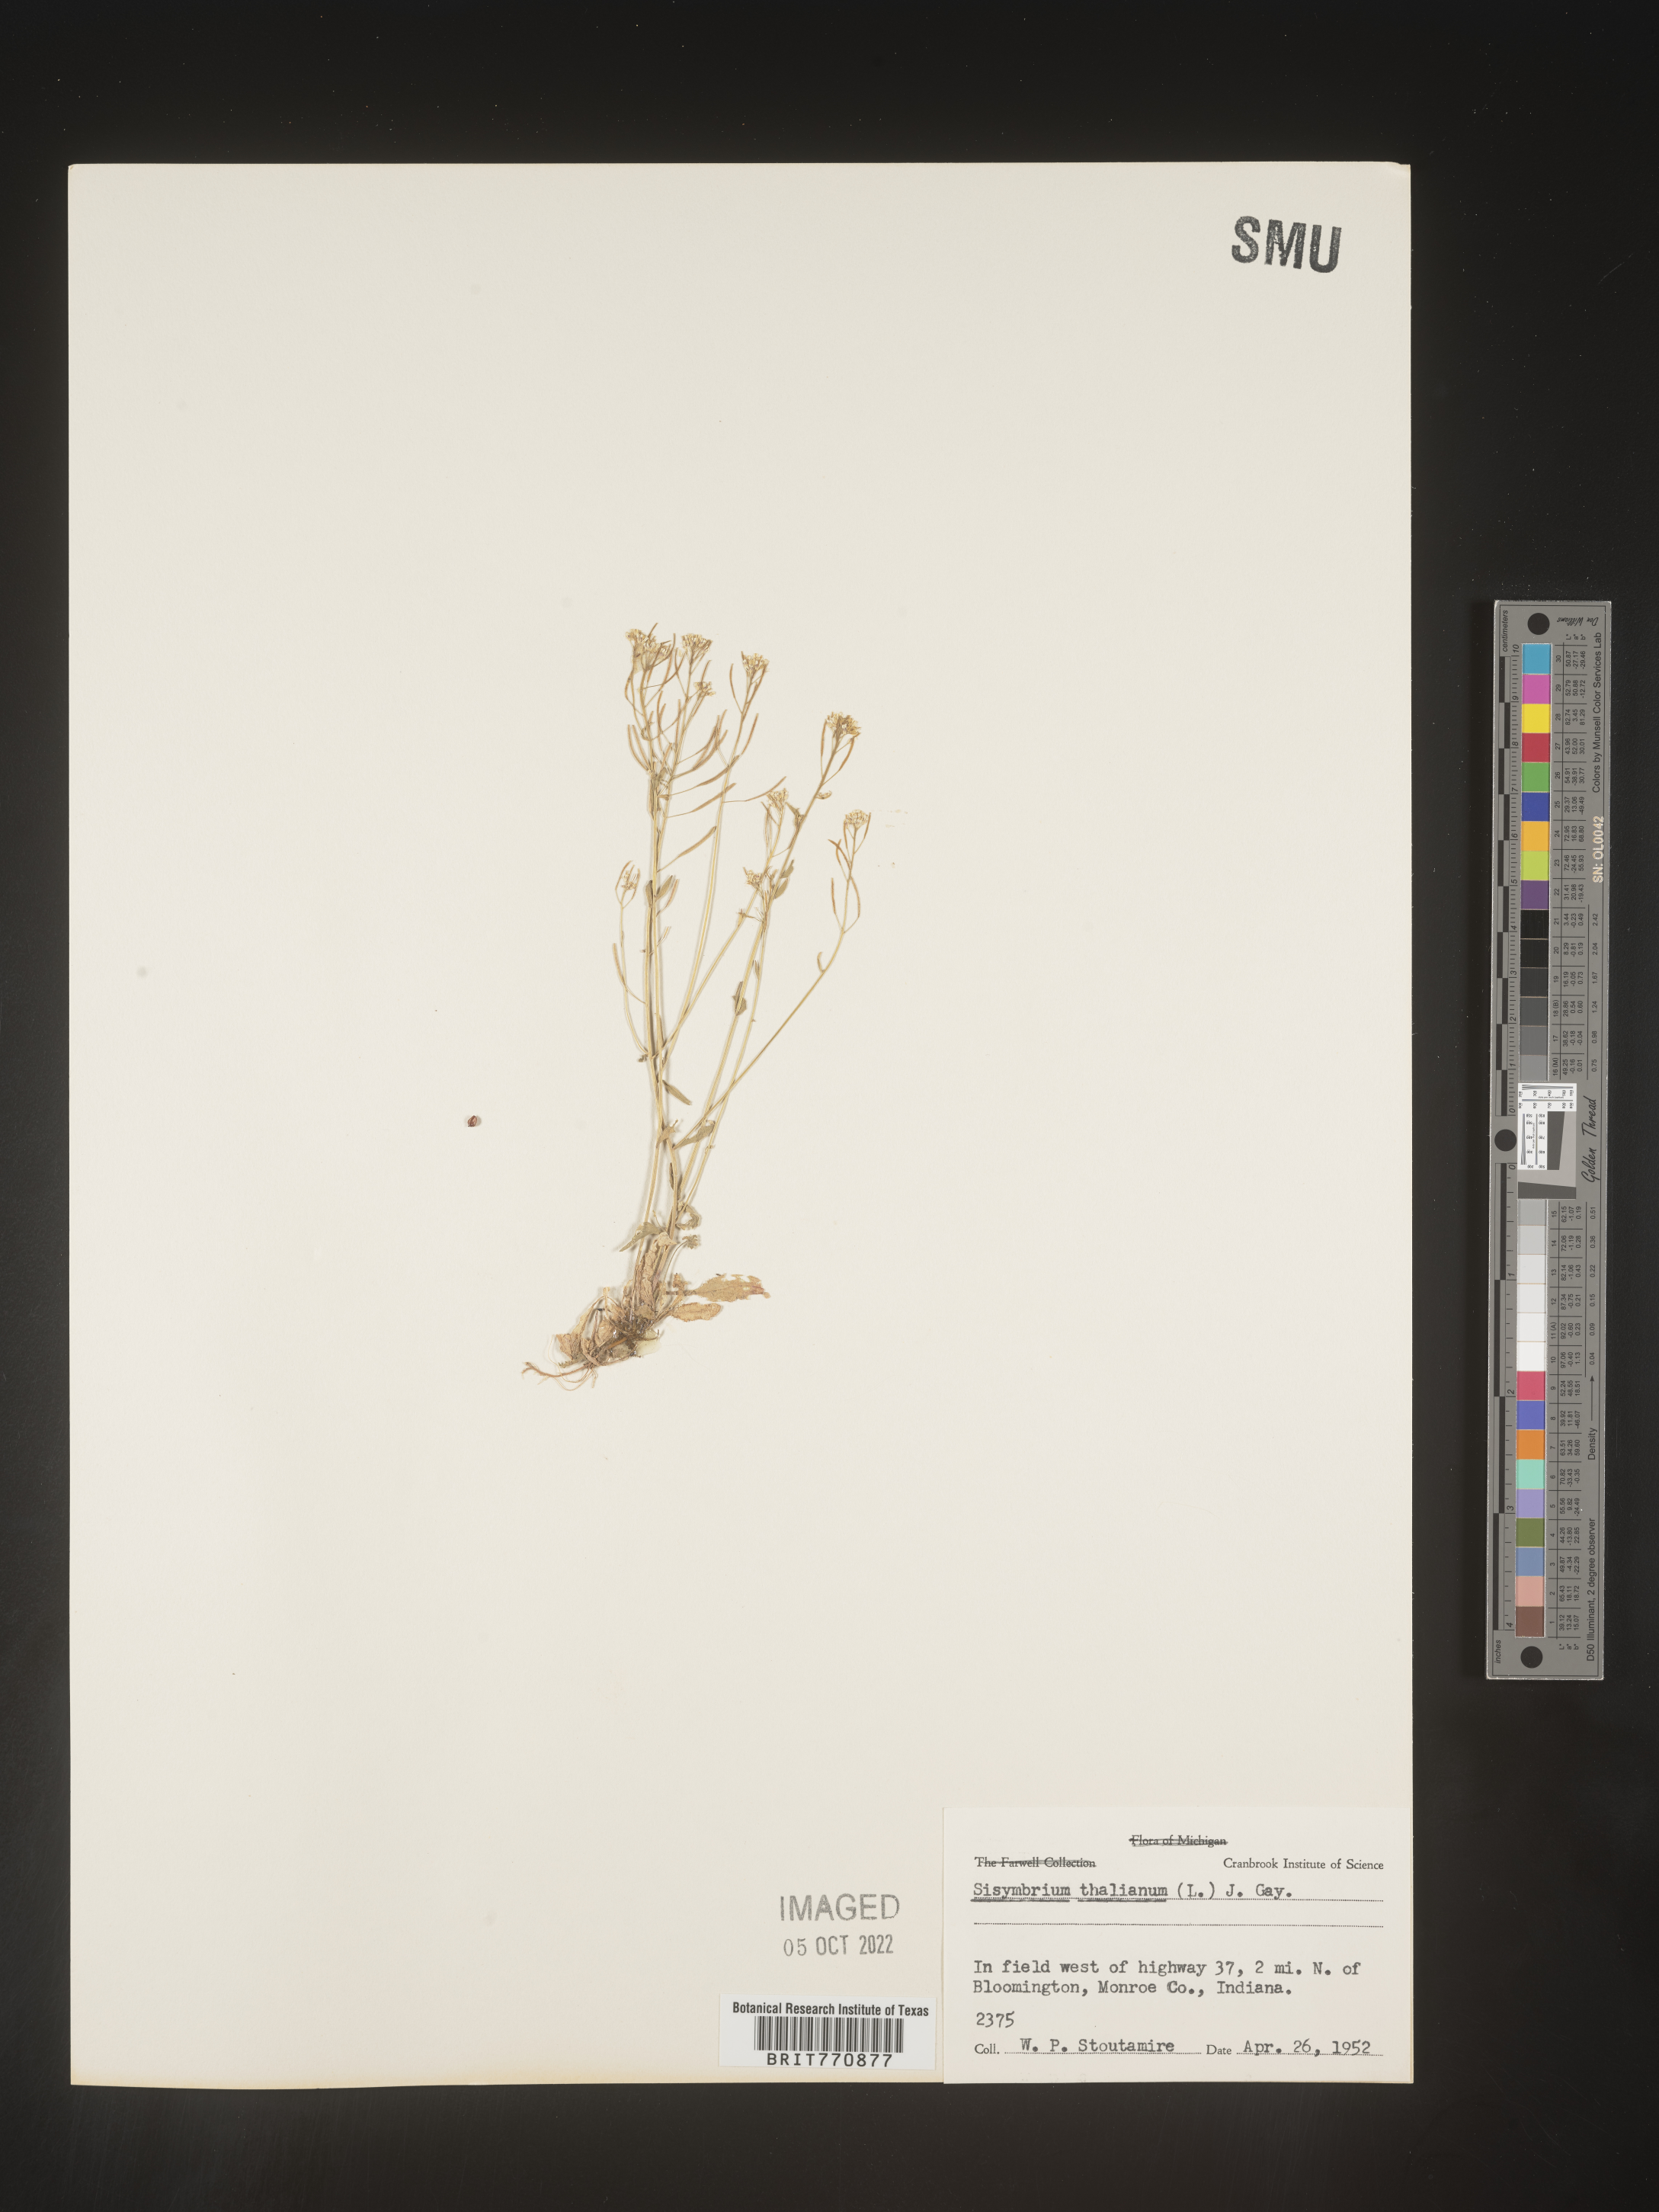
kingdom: Plantae
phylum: Tracheophyta
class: Magnoliopsida
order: Brassicales
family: Brassicaceae
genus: Arabidopsis
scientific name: Arabidopsis thaliana
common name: Thale cress
